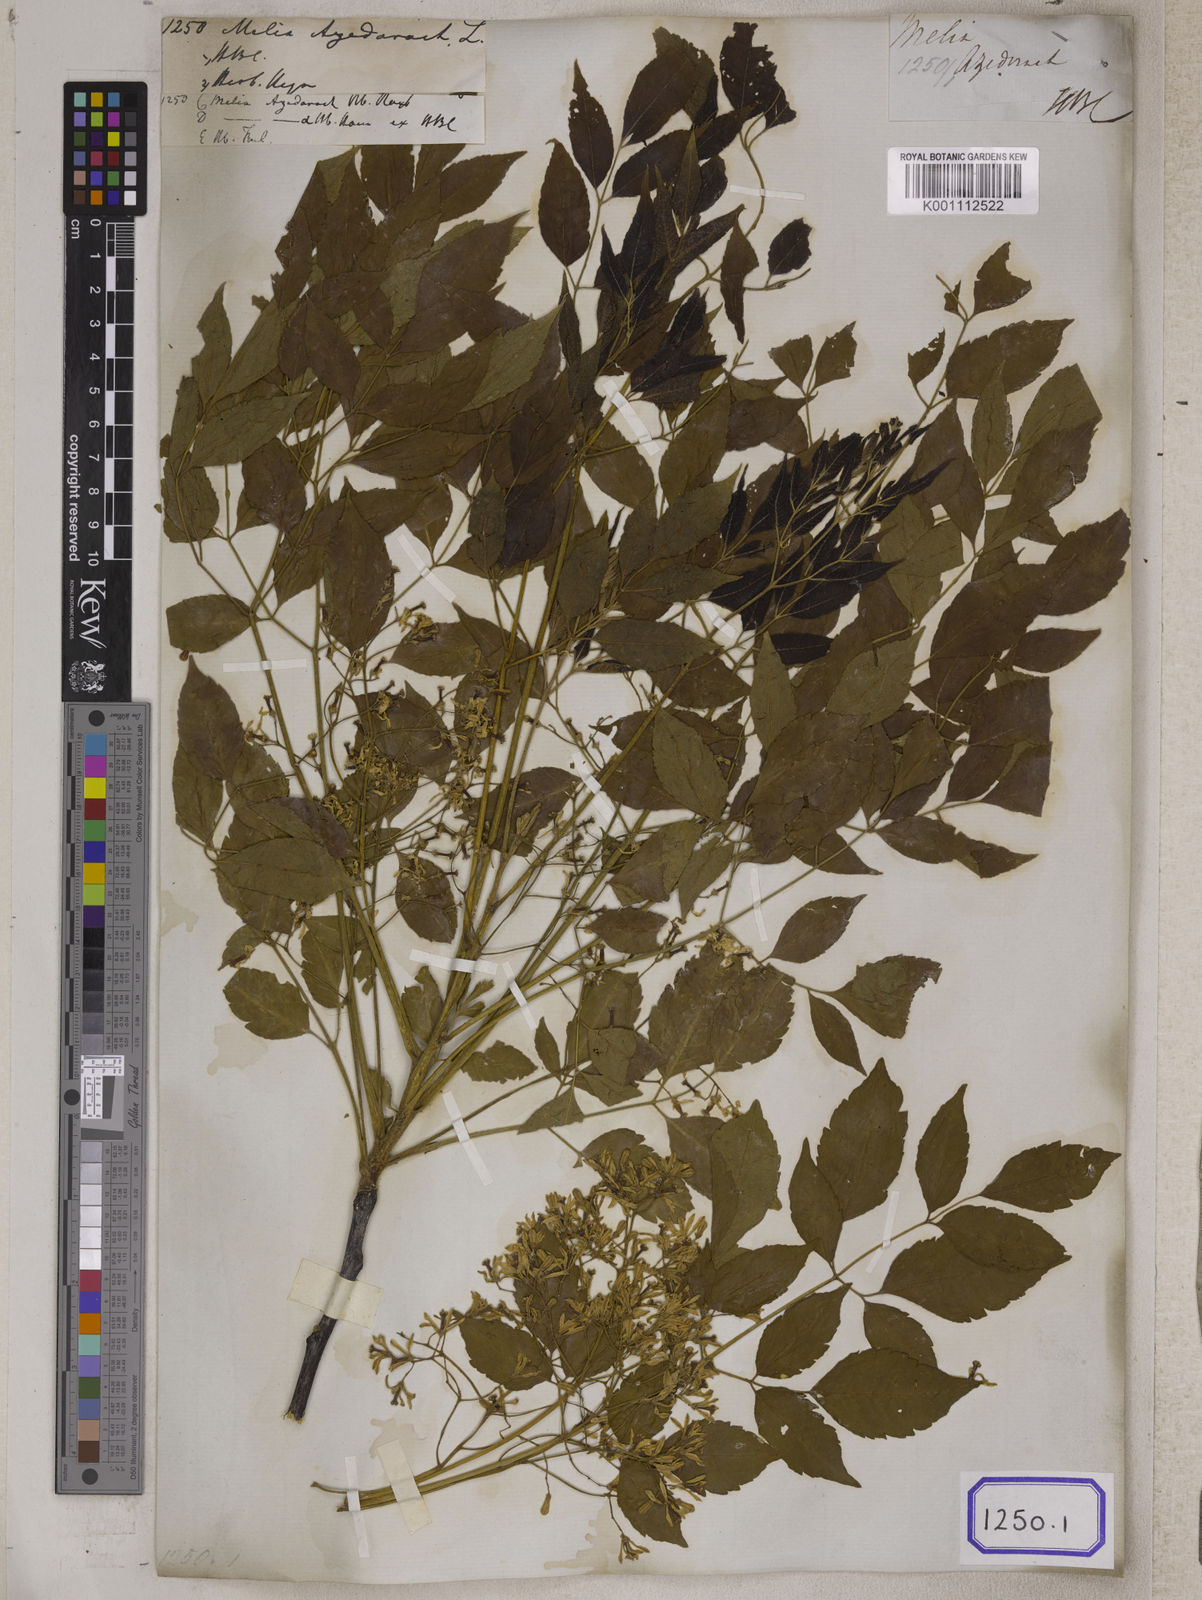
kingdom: Plantae
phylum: Tracheophyta
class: Magnoliopsida
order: Sapindales
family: Meliaceae
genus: Melia
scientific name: Melia azedarach
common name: Chinaberrytree
